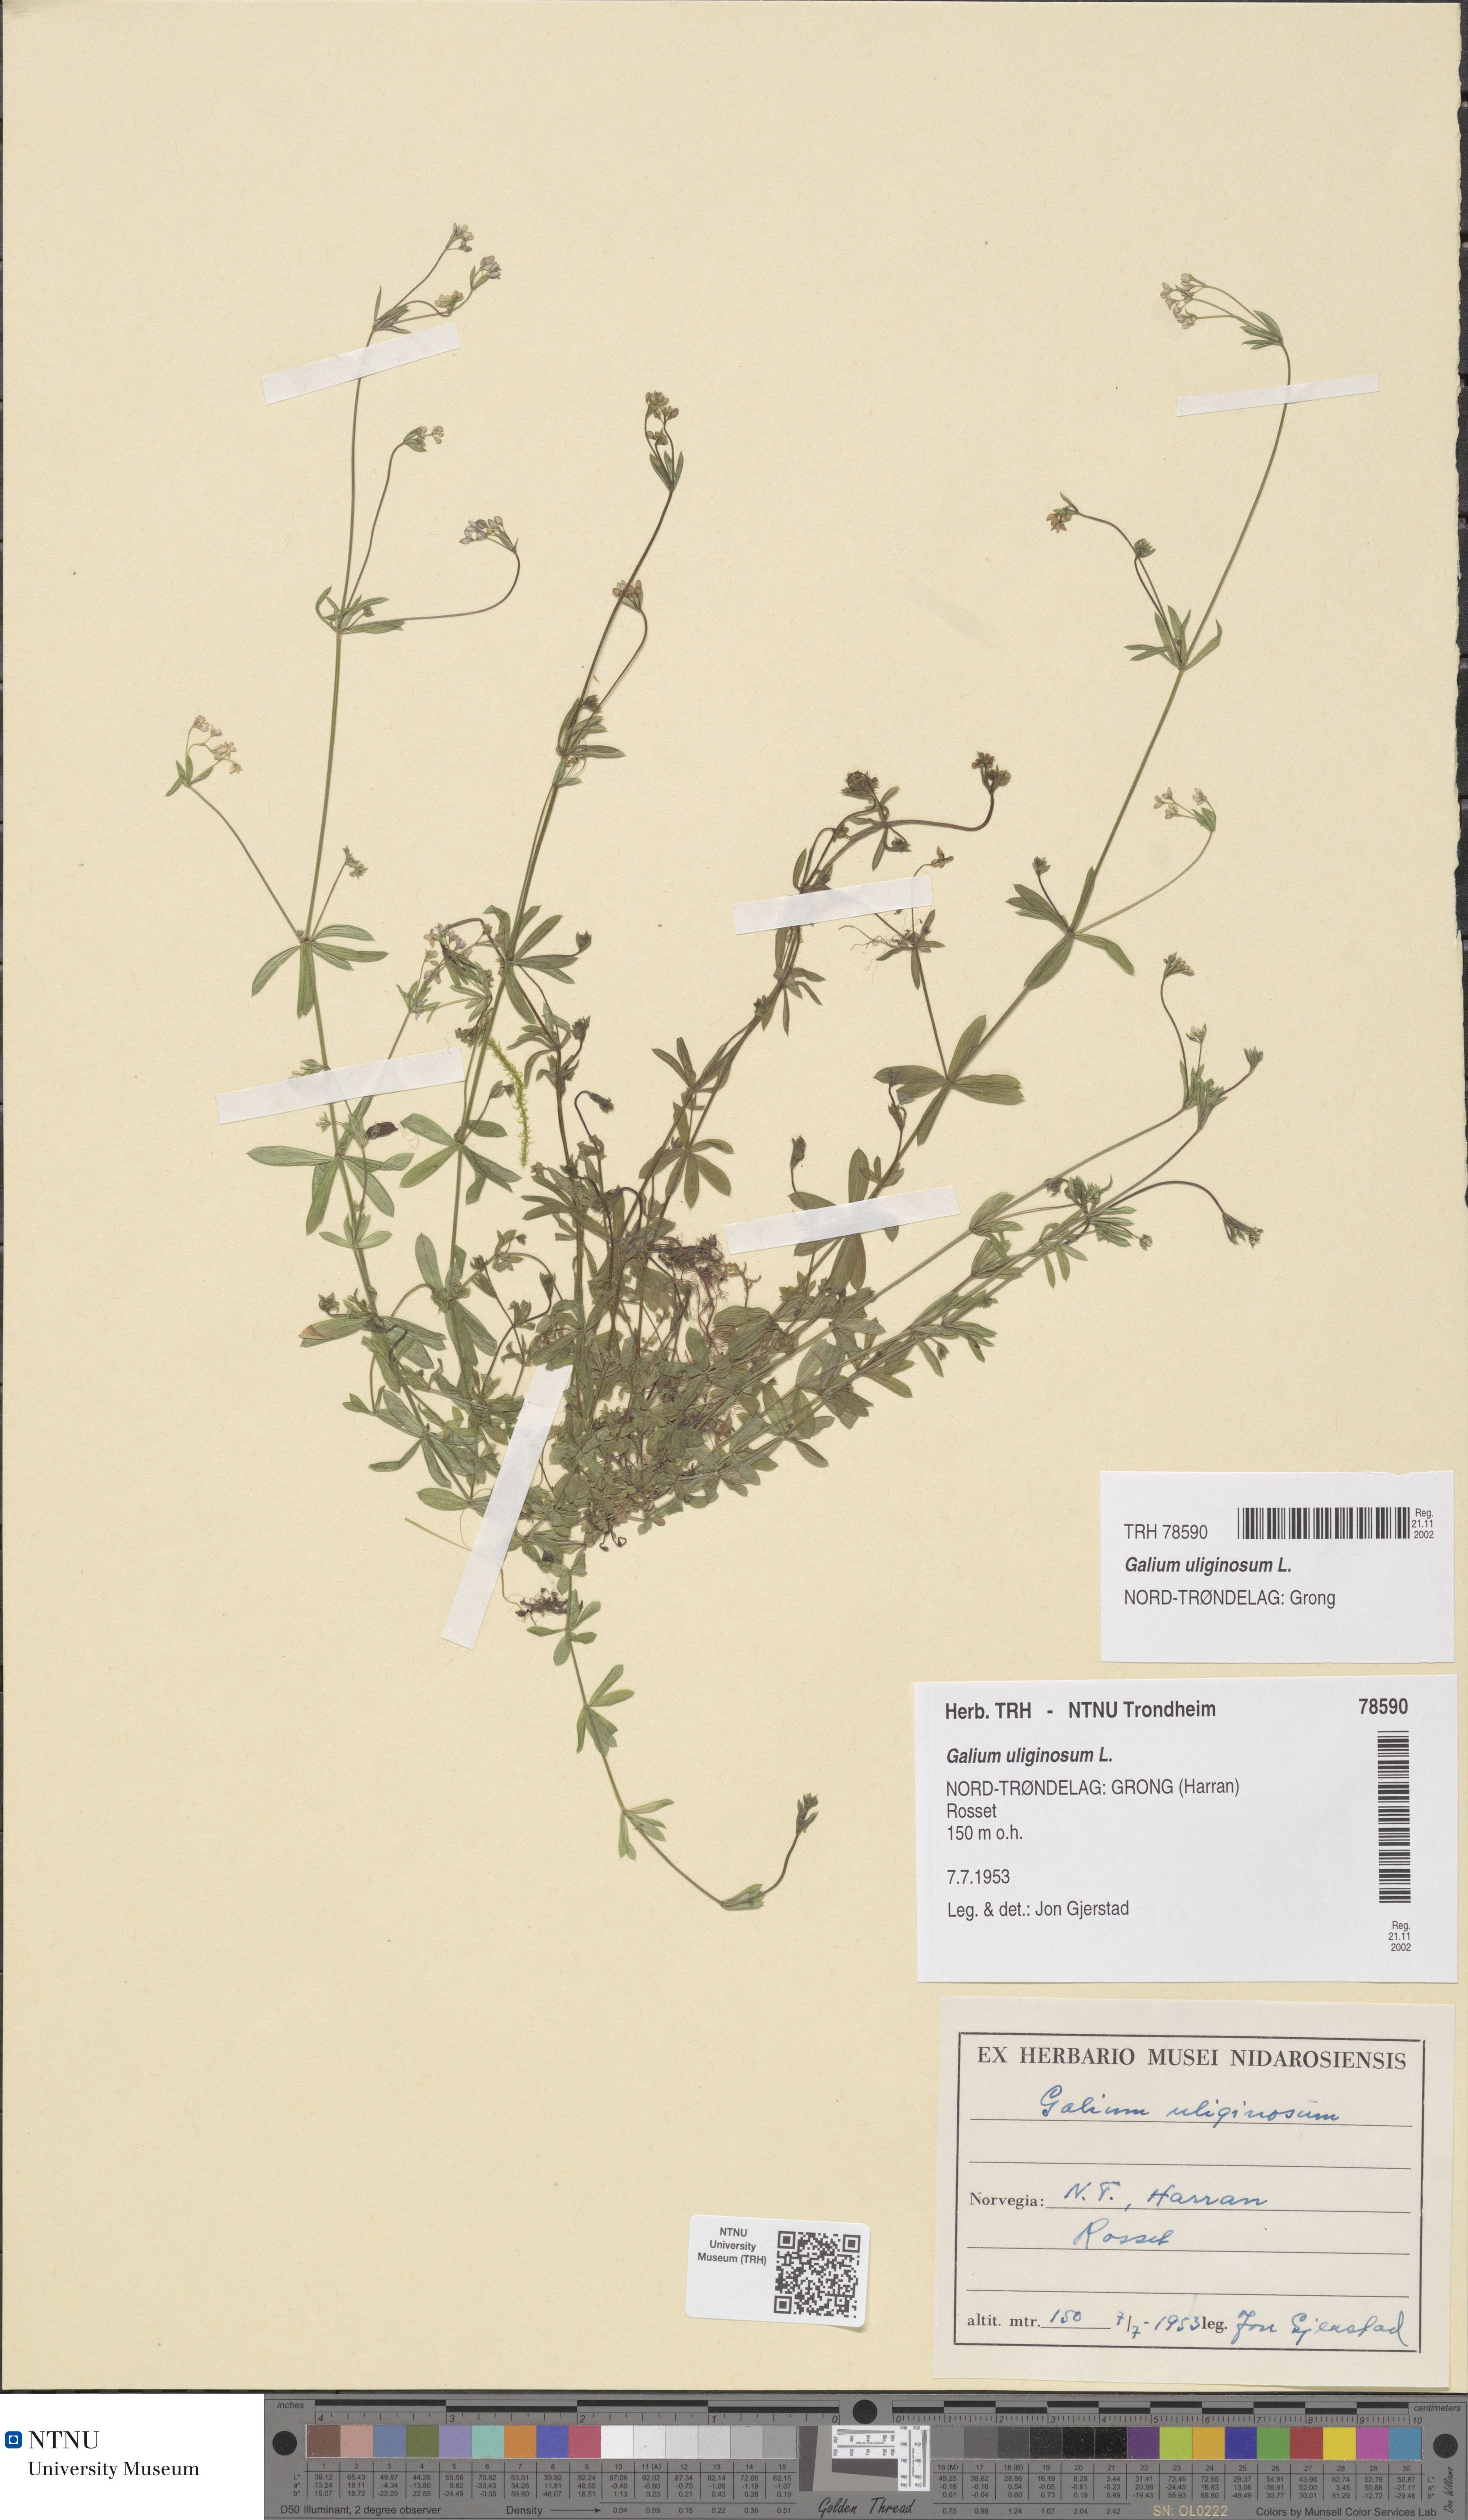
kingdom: Plantae
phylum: Tracheophyta
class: Magnoliopsida
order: Gentianales
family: Rubiaceae
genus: Galium
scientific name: Galium uliginosum
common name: Fen bedstraw
